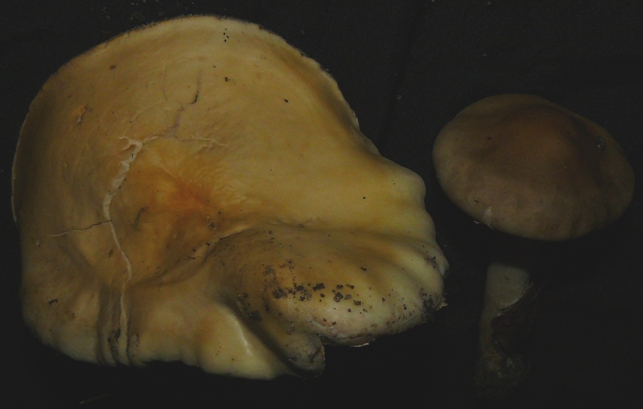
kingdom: Fungi
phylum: Basidiomycota
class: Agaricomycetes
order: Agaricales
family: Strophariaceae
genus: Agrocybe
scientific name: Agrocybe praecox
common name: tidlig agerhat
